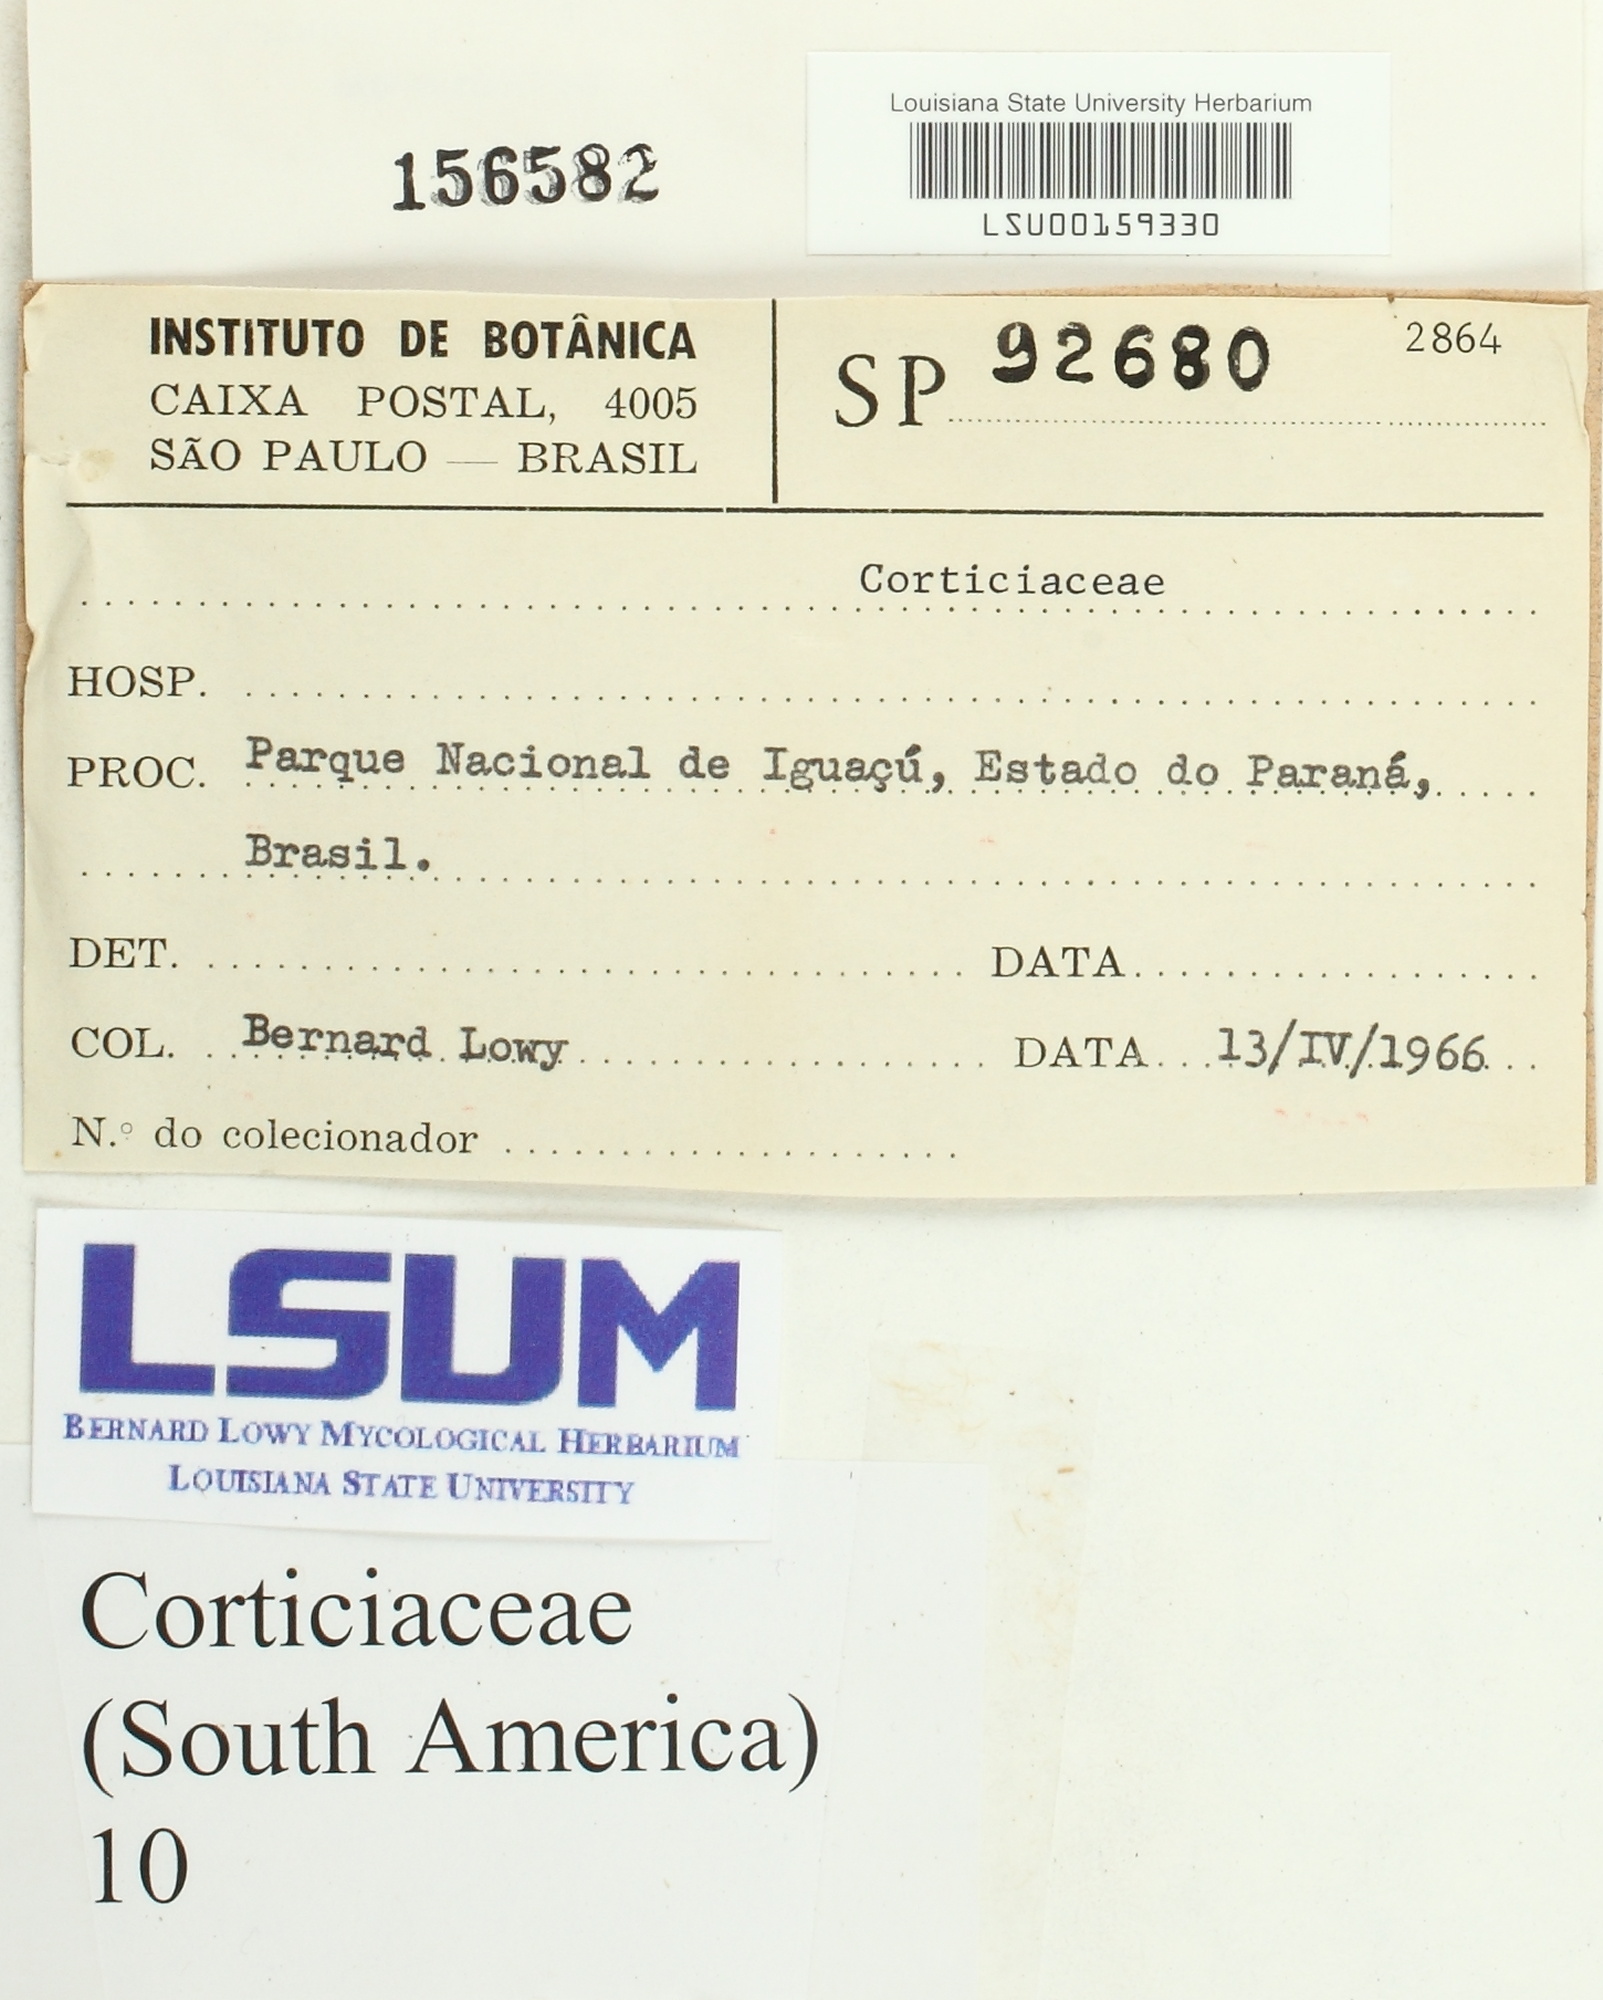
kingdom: Fungi
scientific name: Fungi
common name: Fungi
